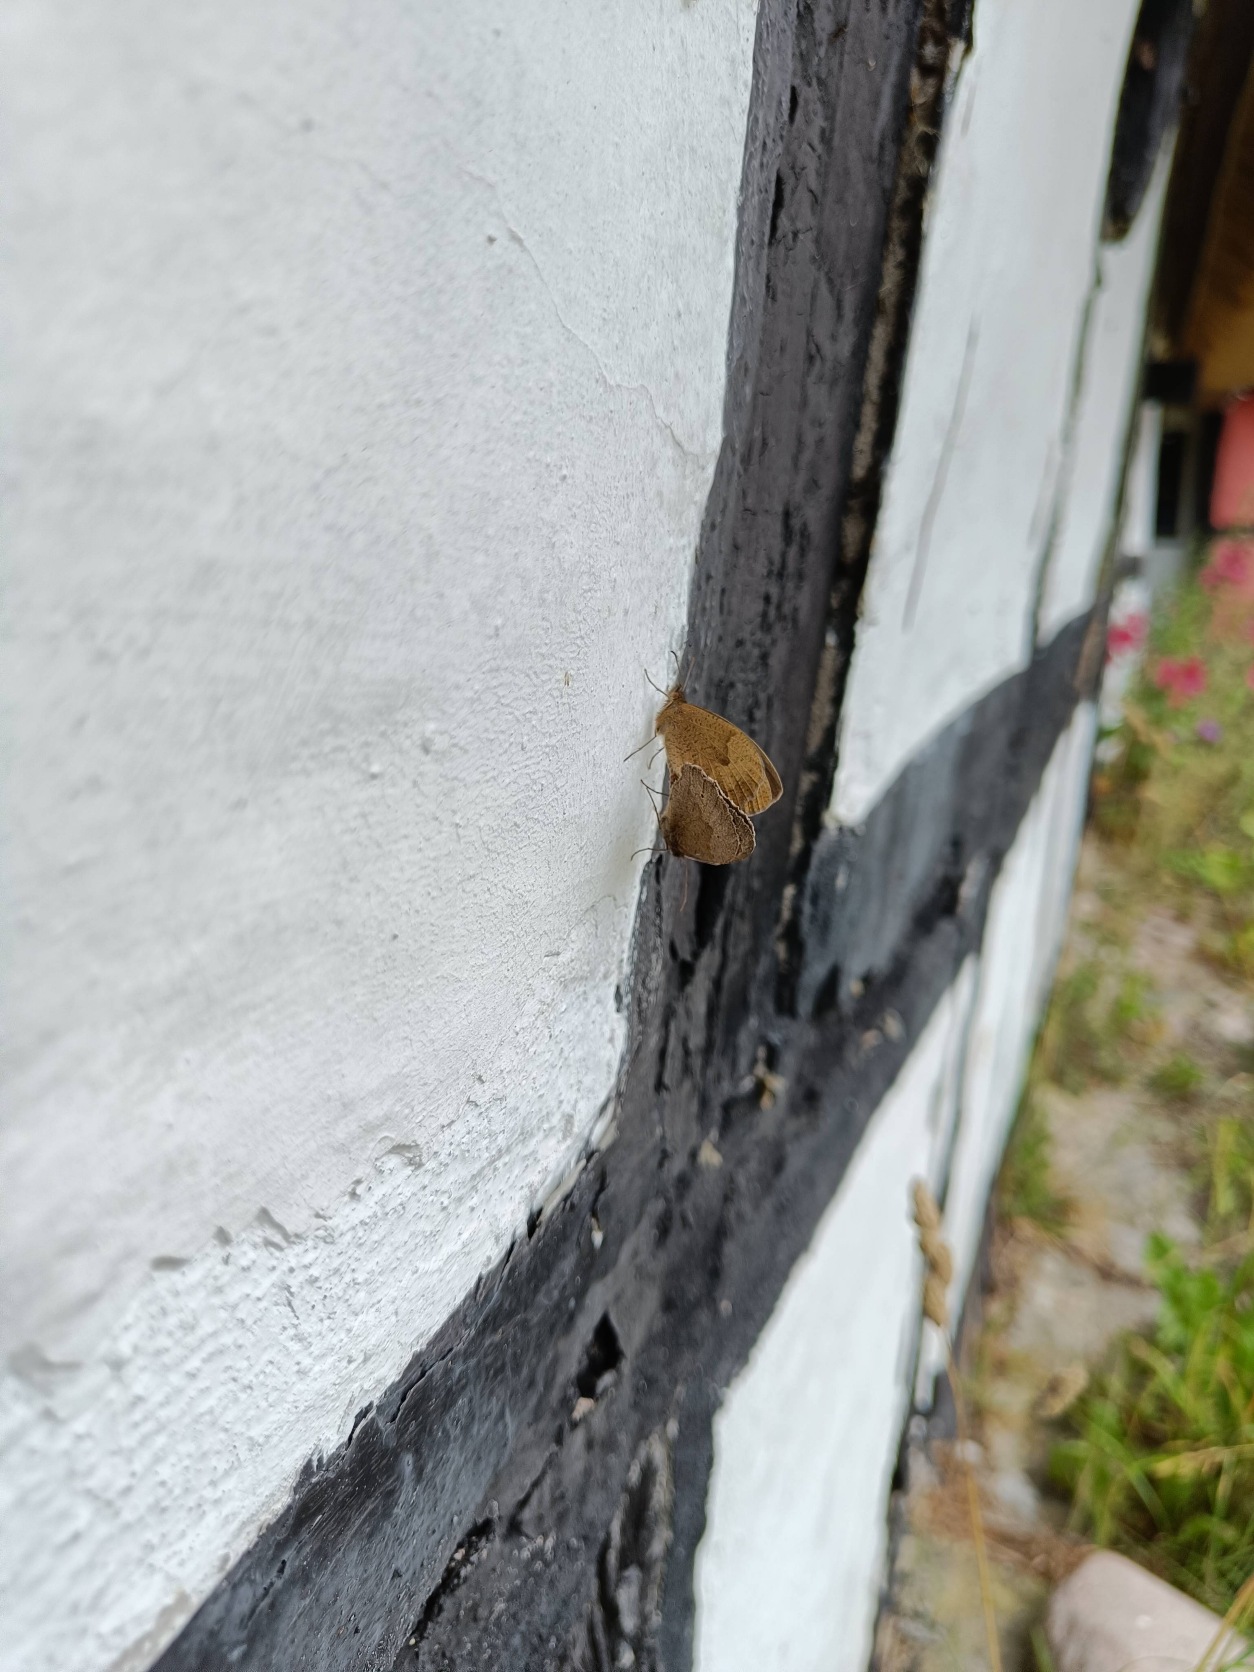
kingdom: Animalia
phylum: Arthropoda
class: Insecta
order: Lepidoptera
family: Nymphalidae
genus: Maniola
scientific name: Maniola jurtina
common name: Græsrandøje
